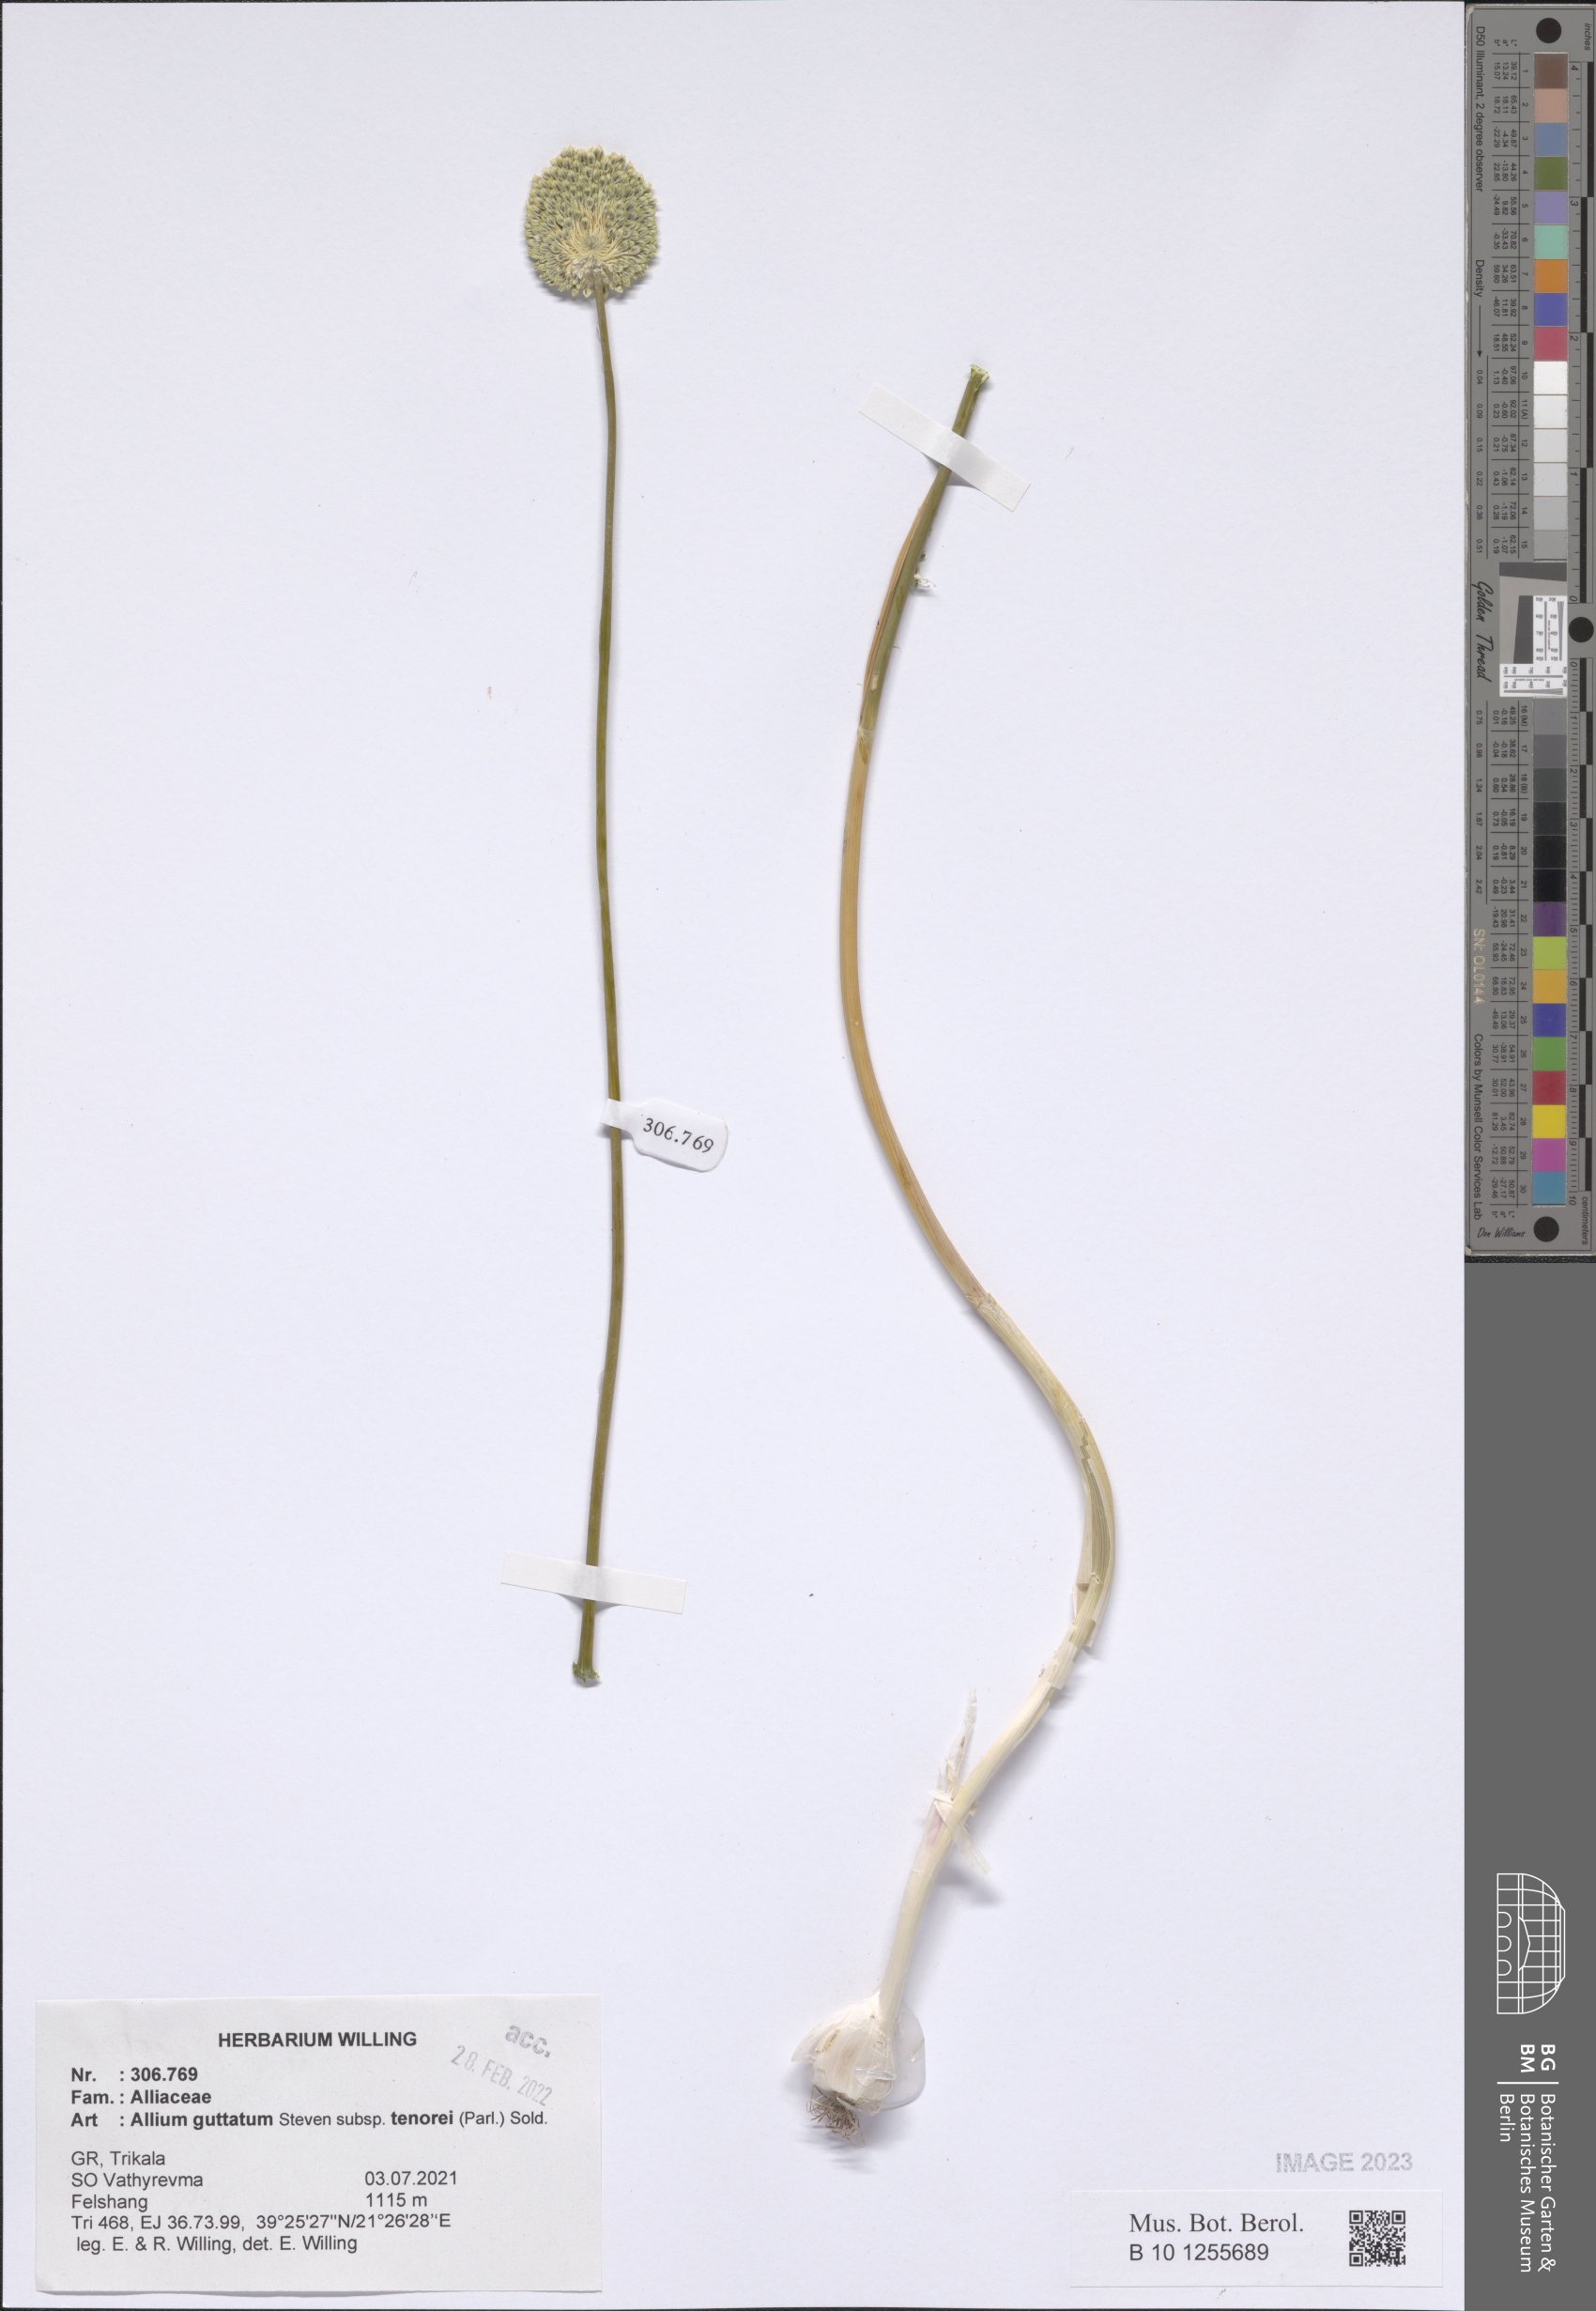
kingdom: Plantae
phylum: Tracheophyta
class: Liliopsida
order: Asparagales
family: Amaryllidaceae
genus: Allium
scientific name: Allium sardoum
